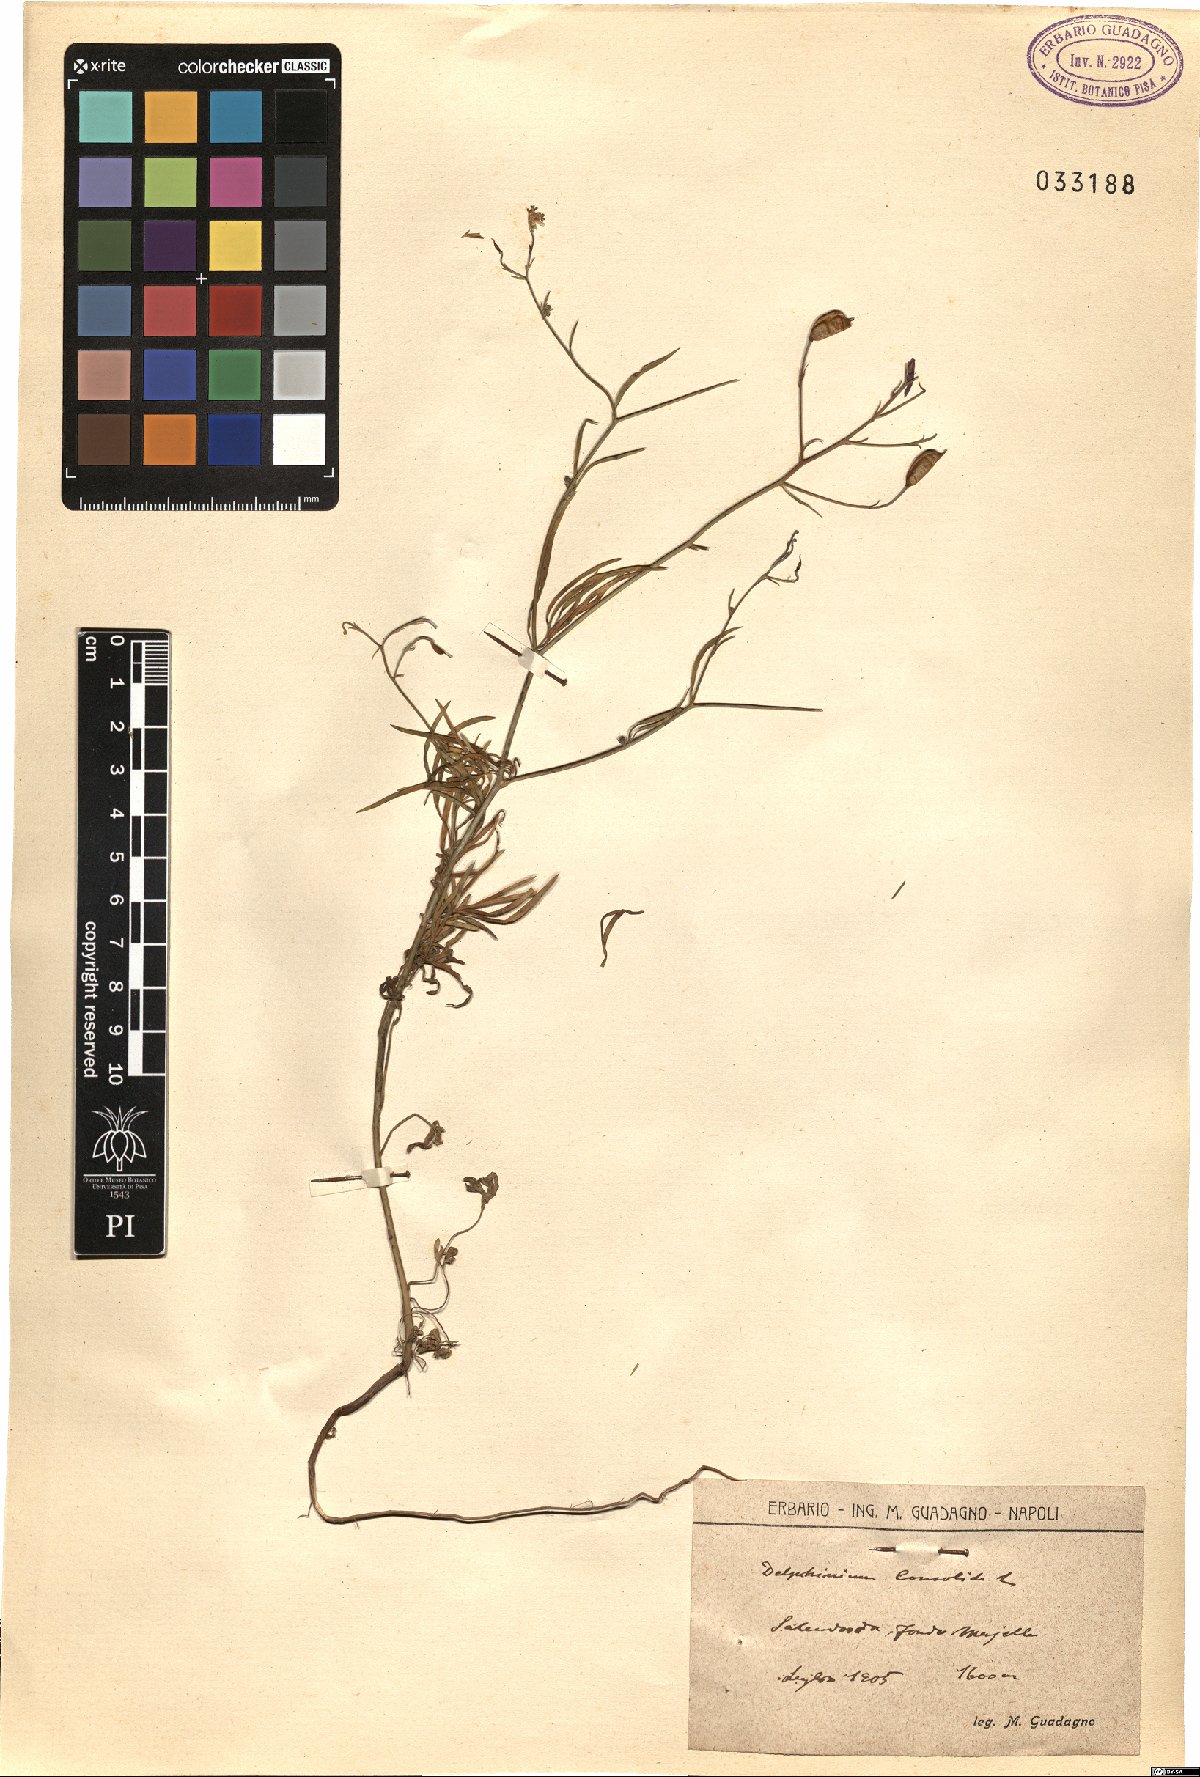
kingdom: Plantae
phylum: Tracheophyta
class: Magnoliopsida
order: Ranunculales
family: Ranunculaceae
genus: Delphinium
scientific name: Delphinium consolida
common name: Branching larkspur
